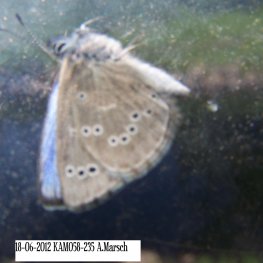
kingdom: Animalia
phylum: Arthropoda
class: Insecta
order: Lepidoptera
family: Lycaenidae
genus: Glaucopsyche
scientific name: Glaucopsyche lygdamus
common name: Silvery Blue
